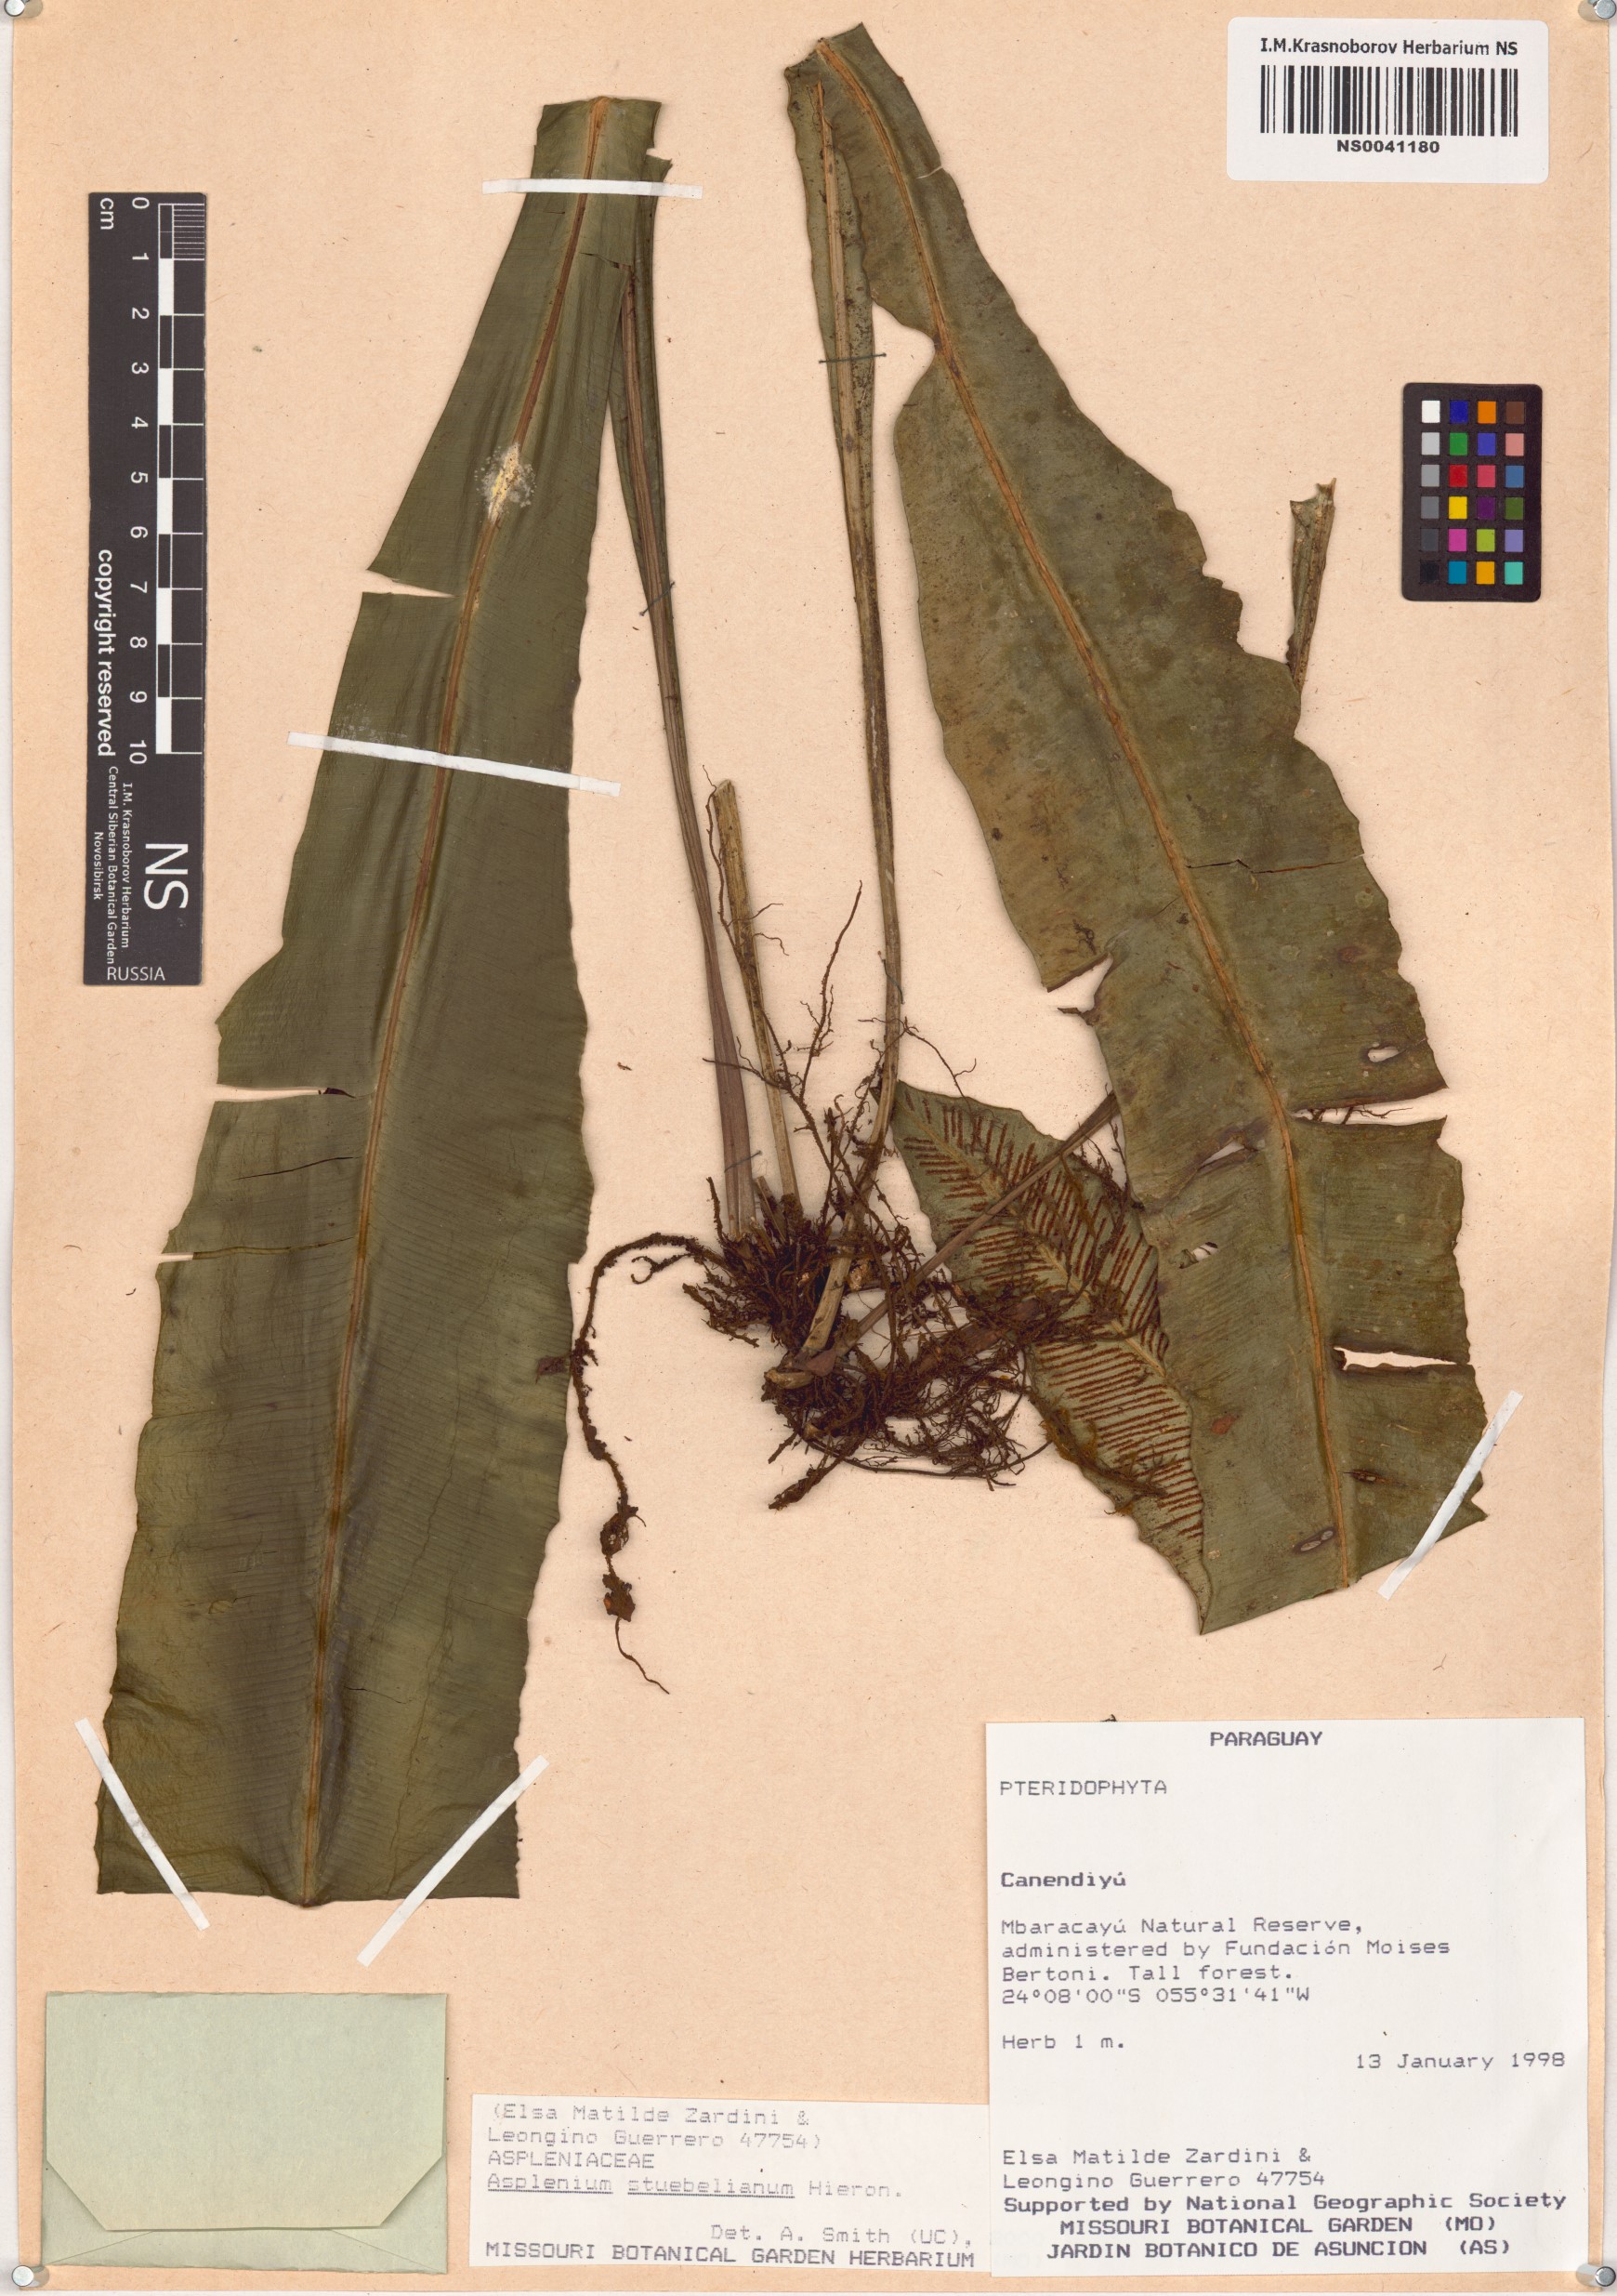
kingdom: Plantae
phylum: Tracheophyta
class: Polypodiopsida
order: Polypodiales
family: Aspleniaceae
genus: Asplenium
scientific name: Asplenium stuebelianum
